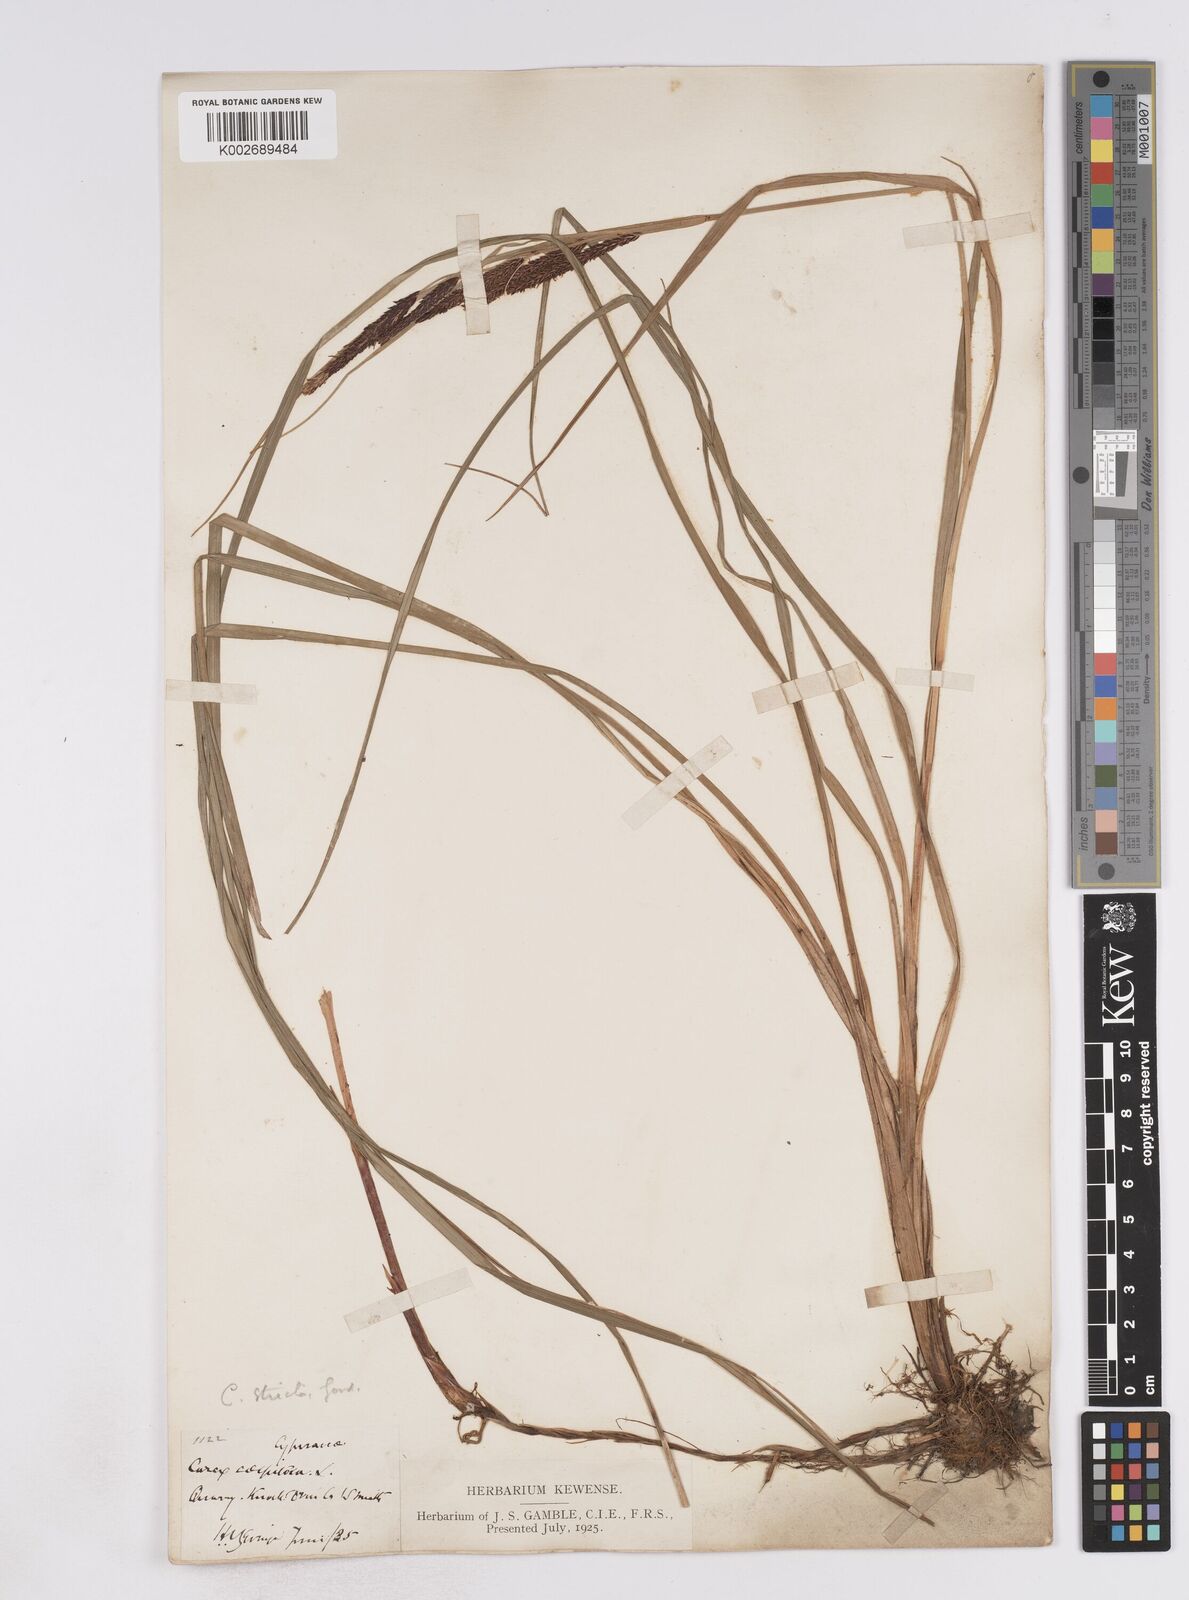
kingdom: Plantae
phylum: Tracheophyta
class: Liliopsida
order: Poales
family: Cyperaceae
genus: Carex
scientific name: Carex flacca
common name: Glaucous sedge
